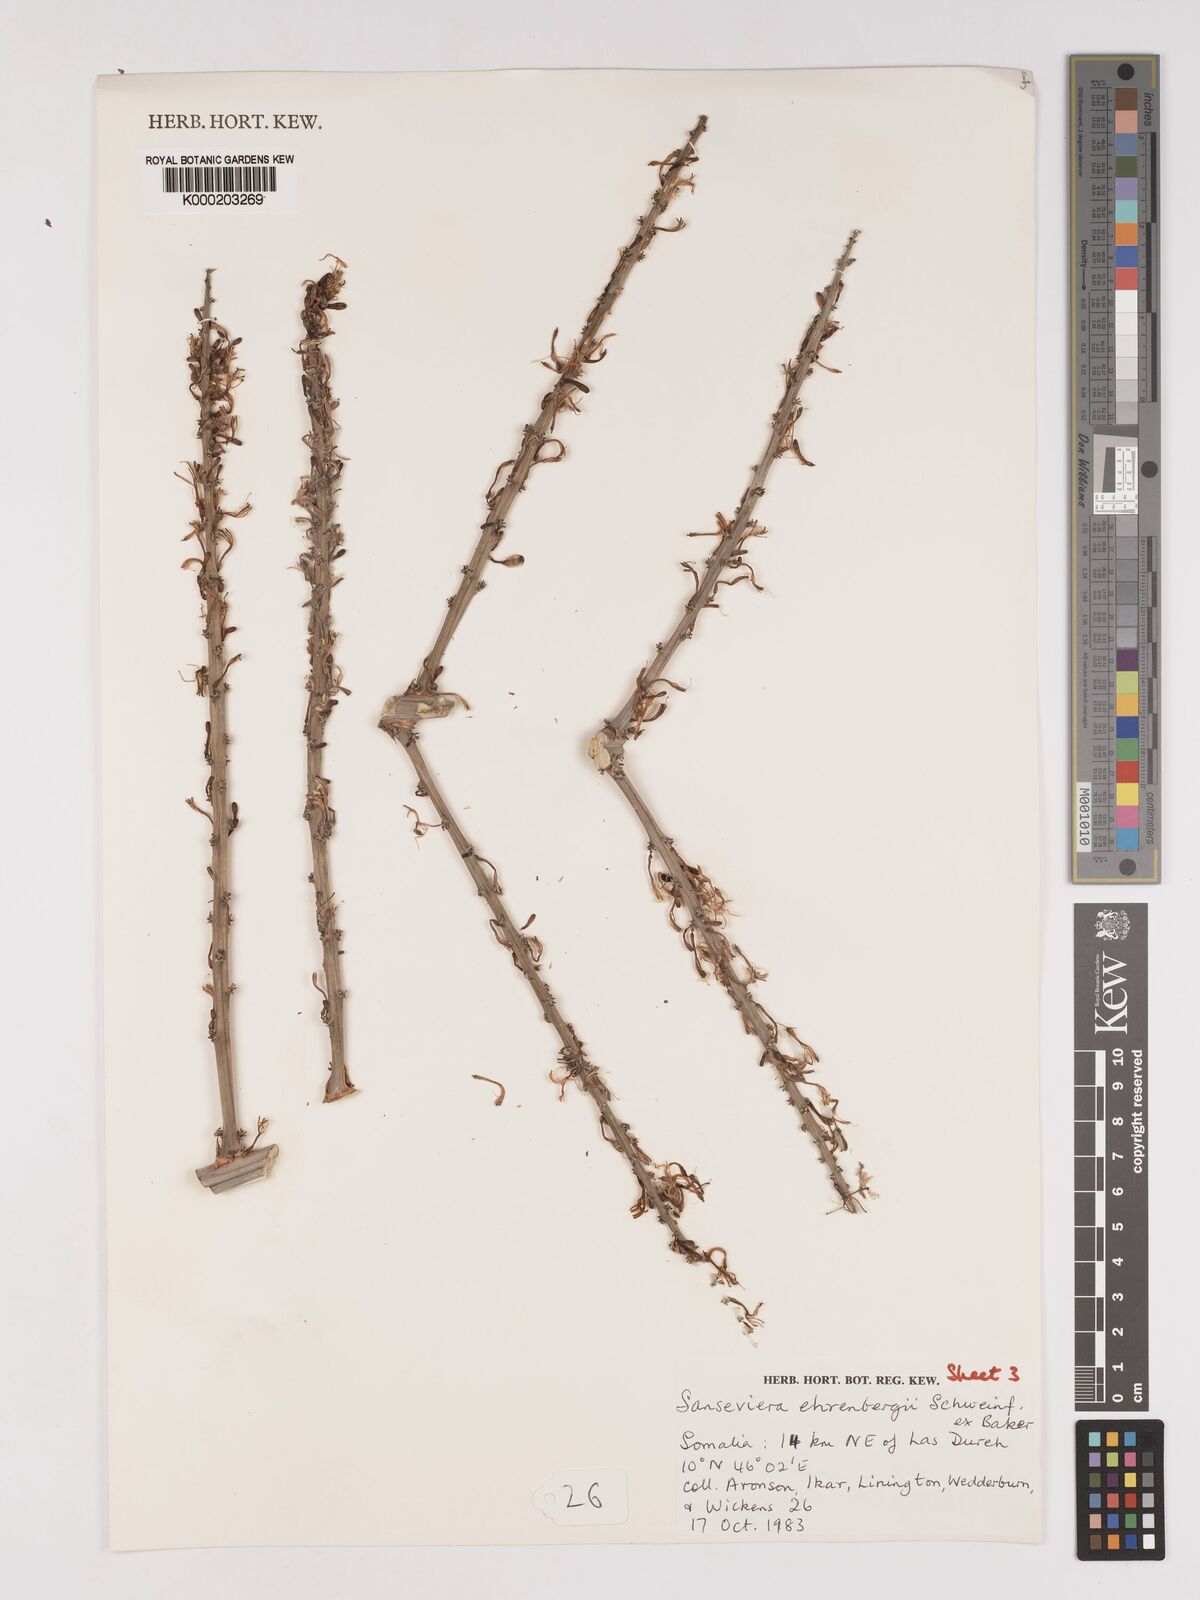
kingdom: Plantae
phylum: Tracheophyta
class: Liliopsida
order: Asparagales
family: Asparagaceae
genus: Dracaena
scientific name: Dracaena hanningtonii
